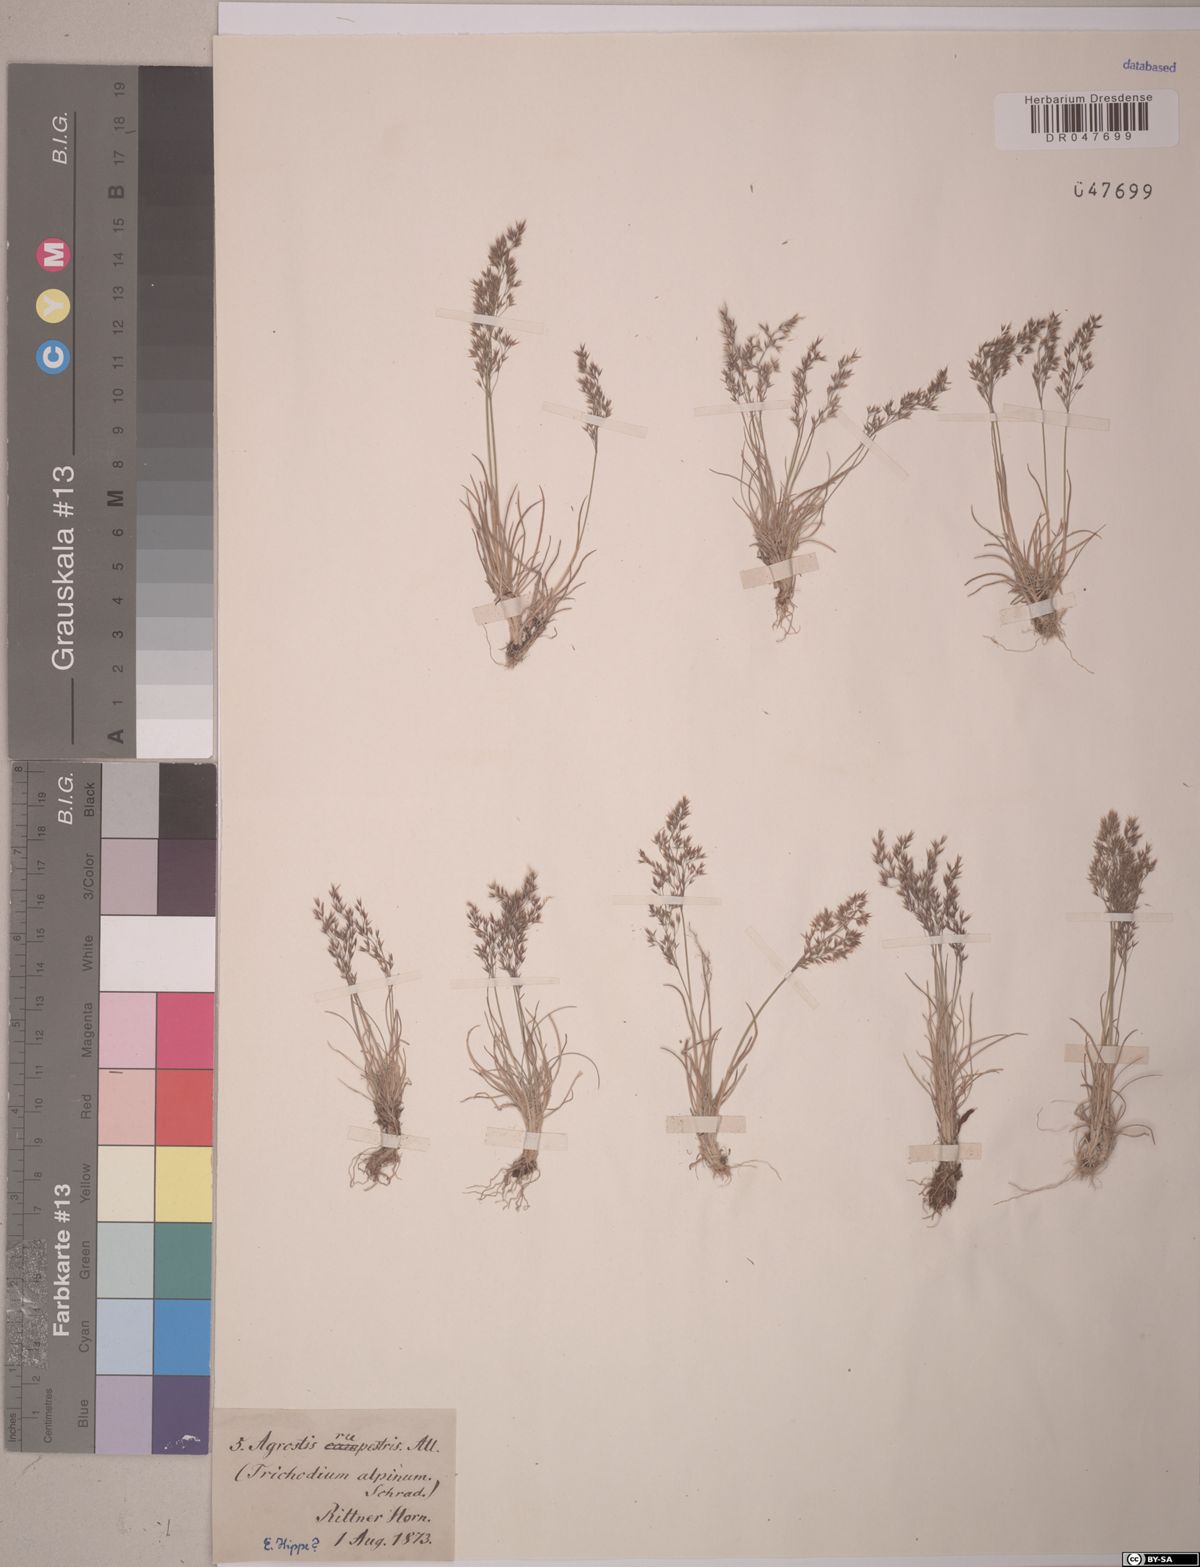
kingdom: Plantae
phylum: Tracheophyta
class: Liliopsida
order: Poales
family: Poaceae
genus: Agrostis
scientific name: Agrostis rupestris
